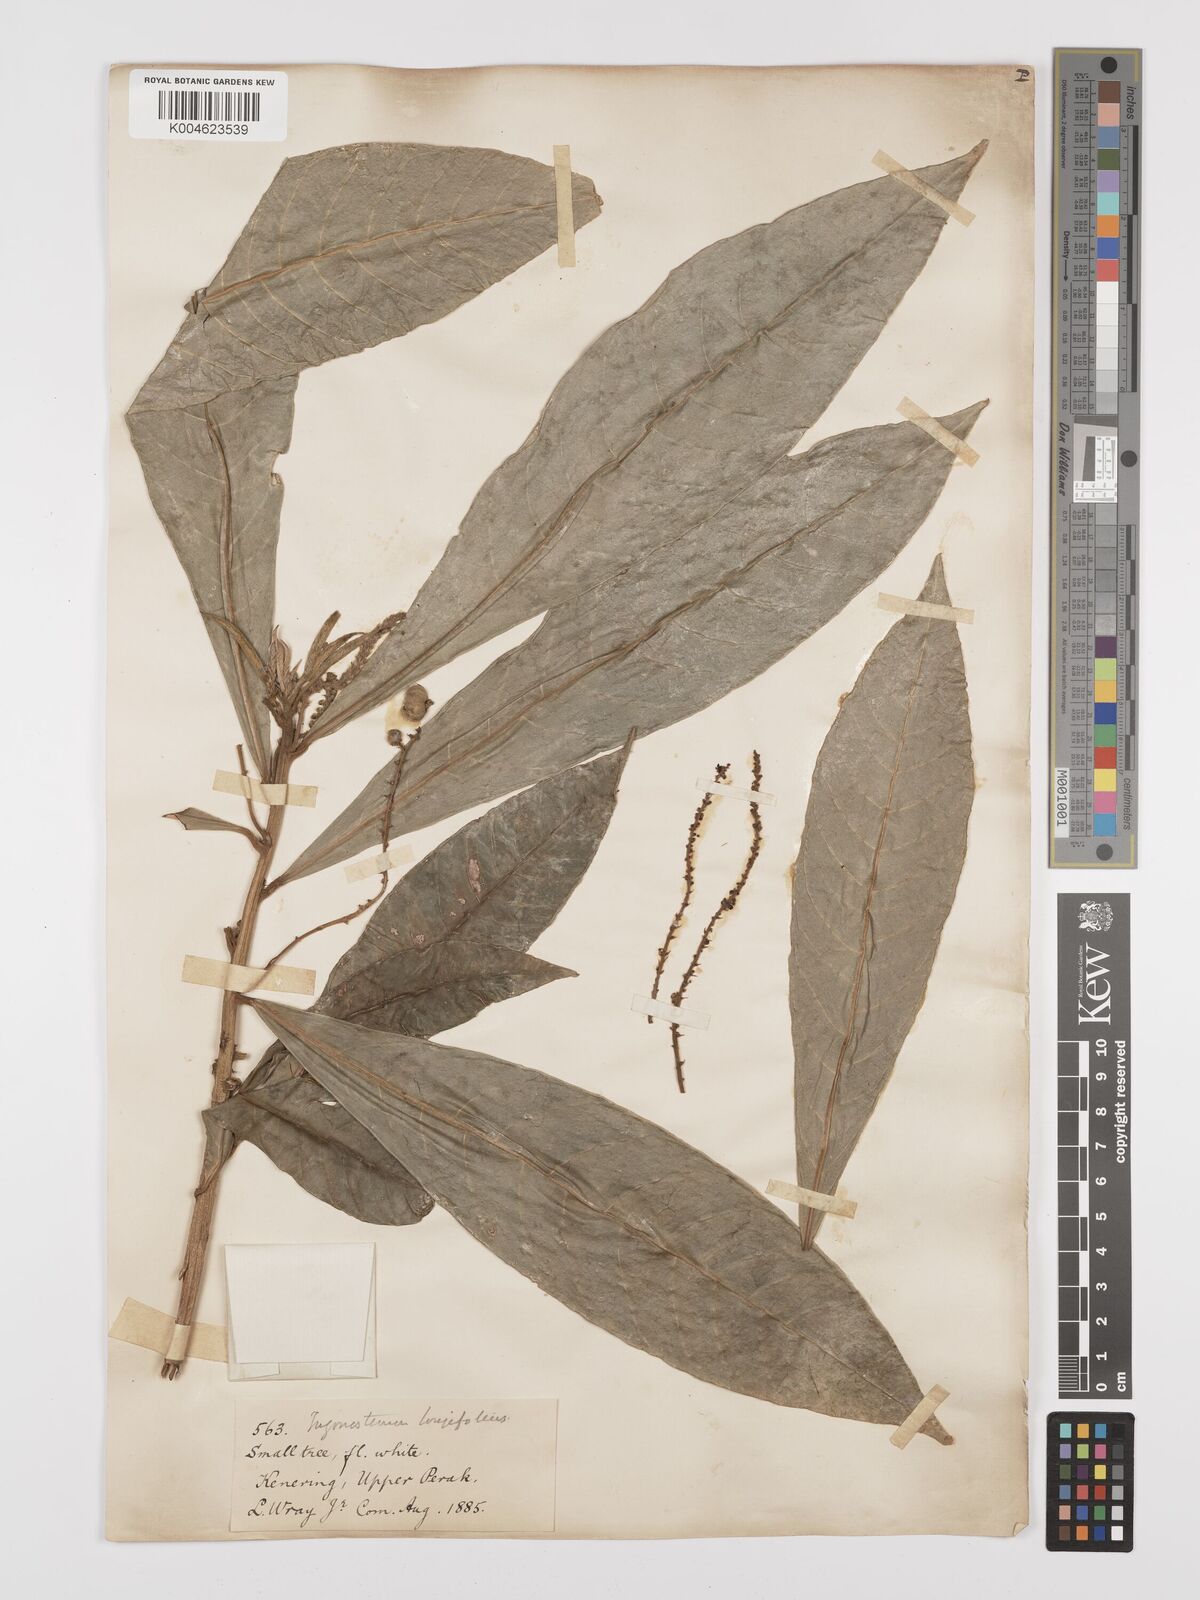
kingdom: Plantae
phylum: Tracheophyta
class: Magnoliopsida
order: Malpighiales
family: Euphorbiaceae
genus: Trigonostemon
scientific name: Trigonostemon longifolius
